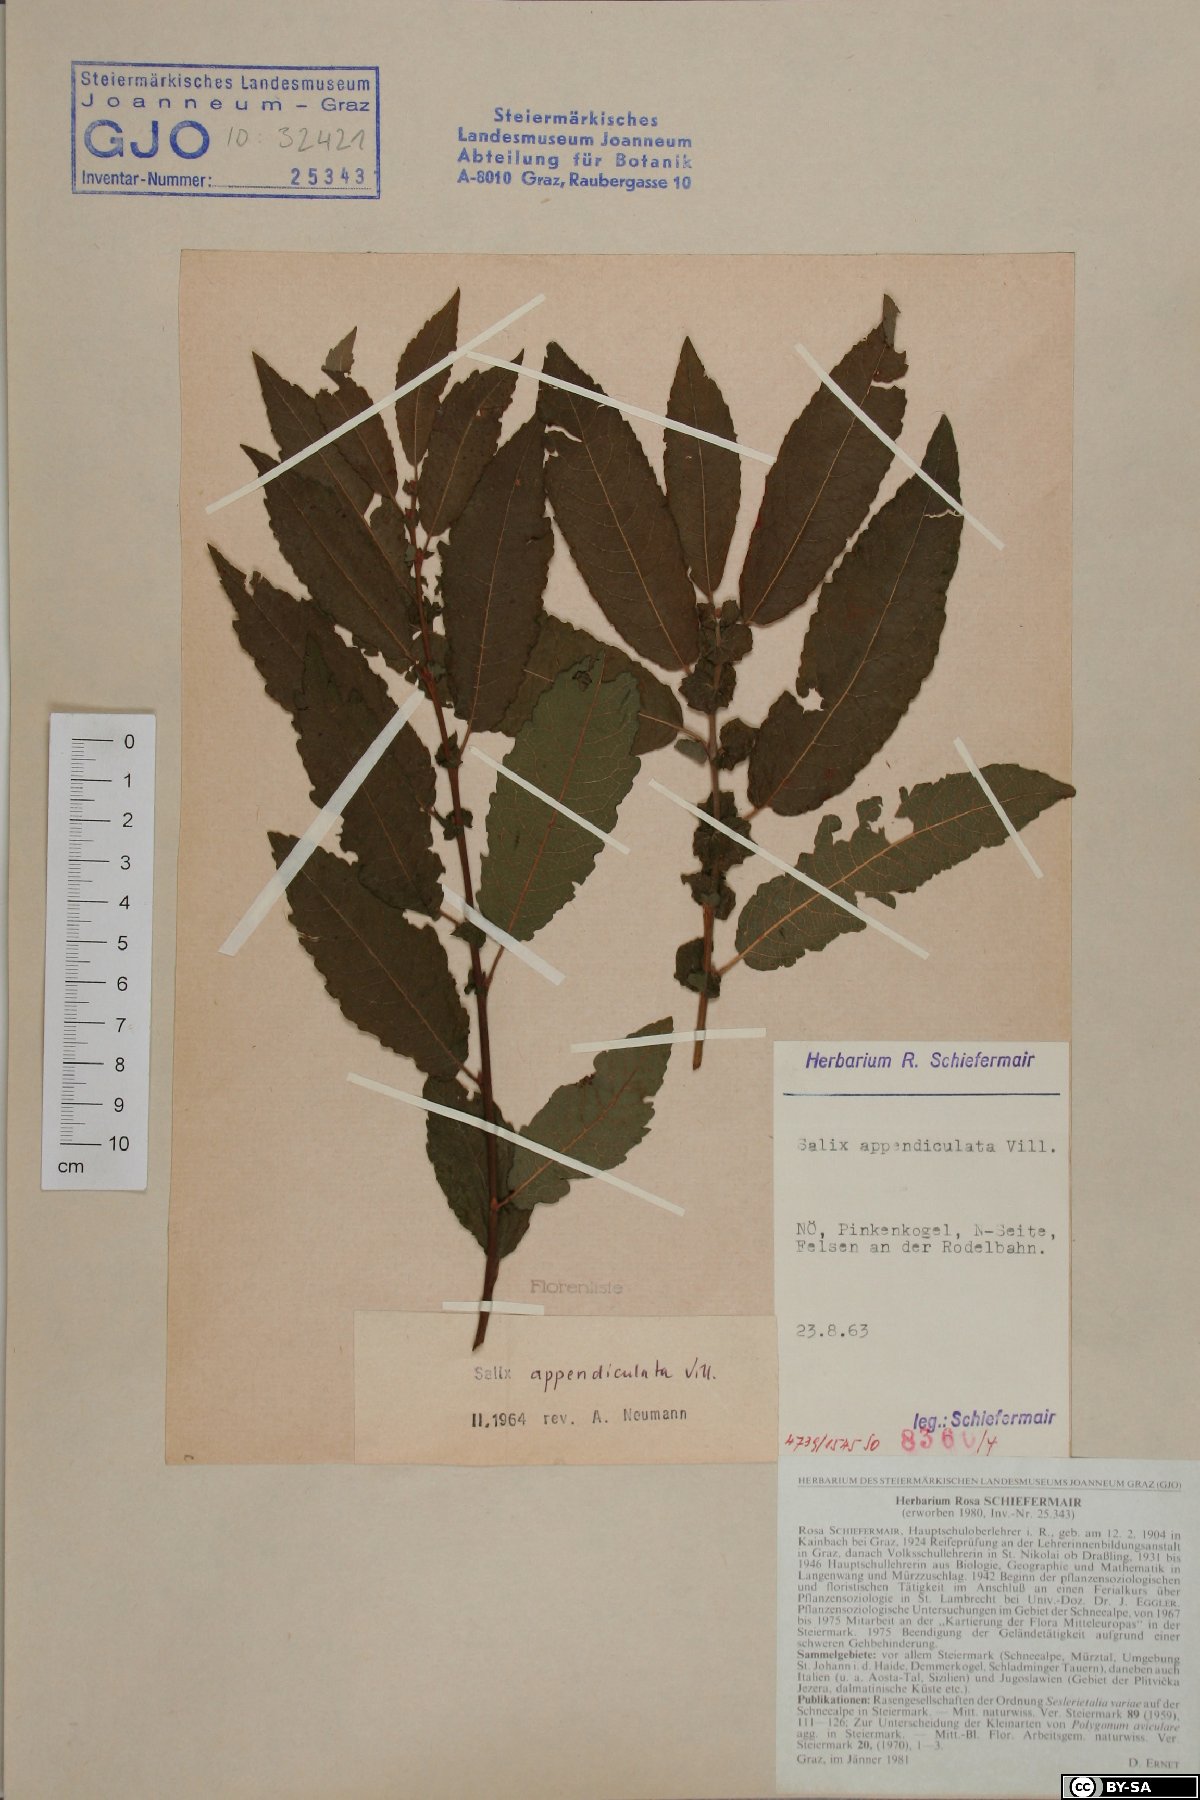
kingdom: Plantae
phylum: Tracheophyta
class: Magnoliopsida
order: Malpighiales
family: Salicaceae
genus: Salix
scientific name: Salix appendiculata
